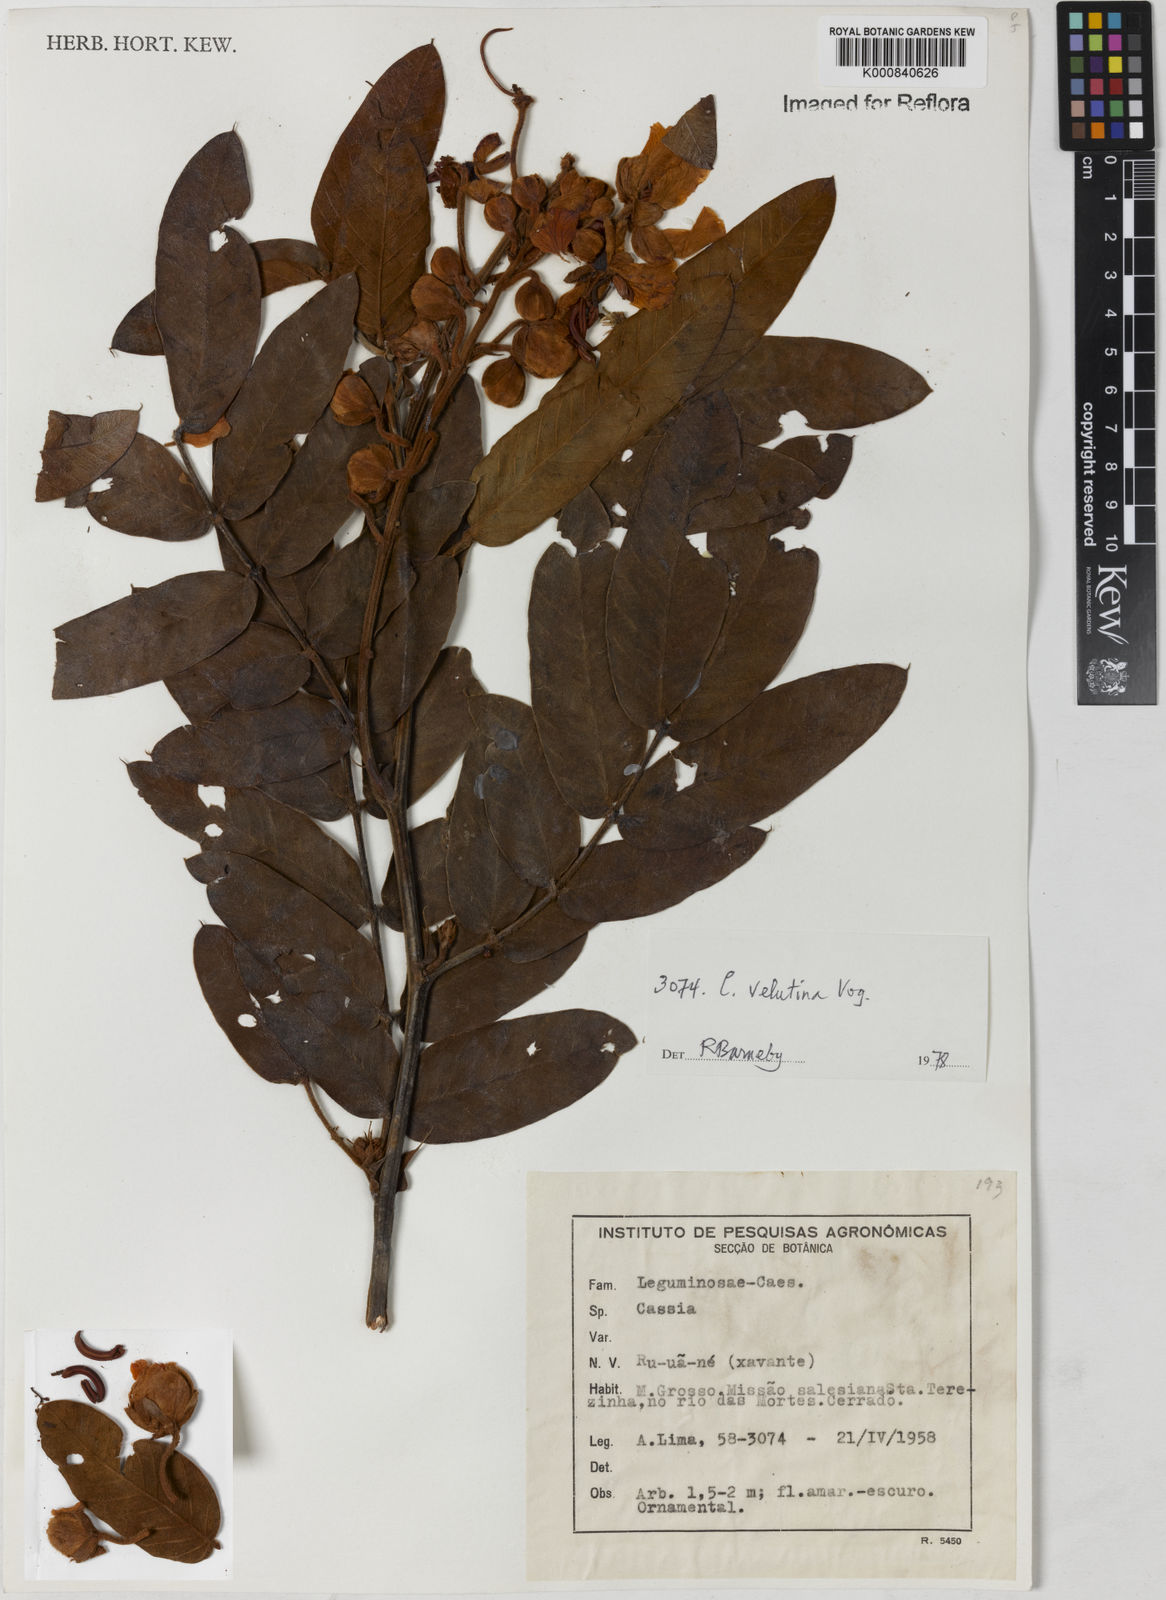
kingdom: Plantae
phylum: Tracheophyta
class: Magnoliopsida
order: Fabales
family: Fabaceae
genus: Senna
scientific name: Senna velutina
